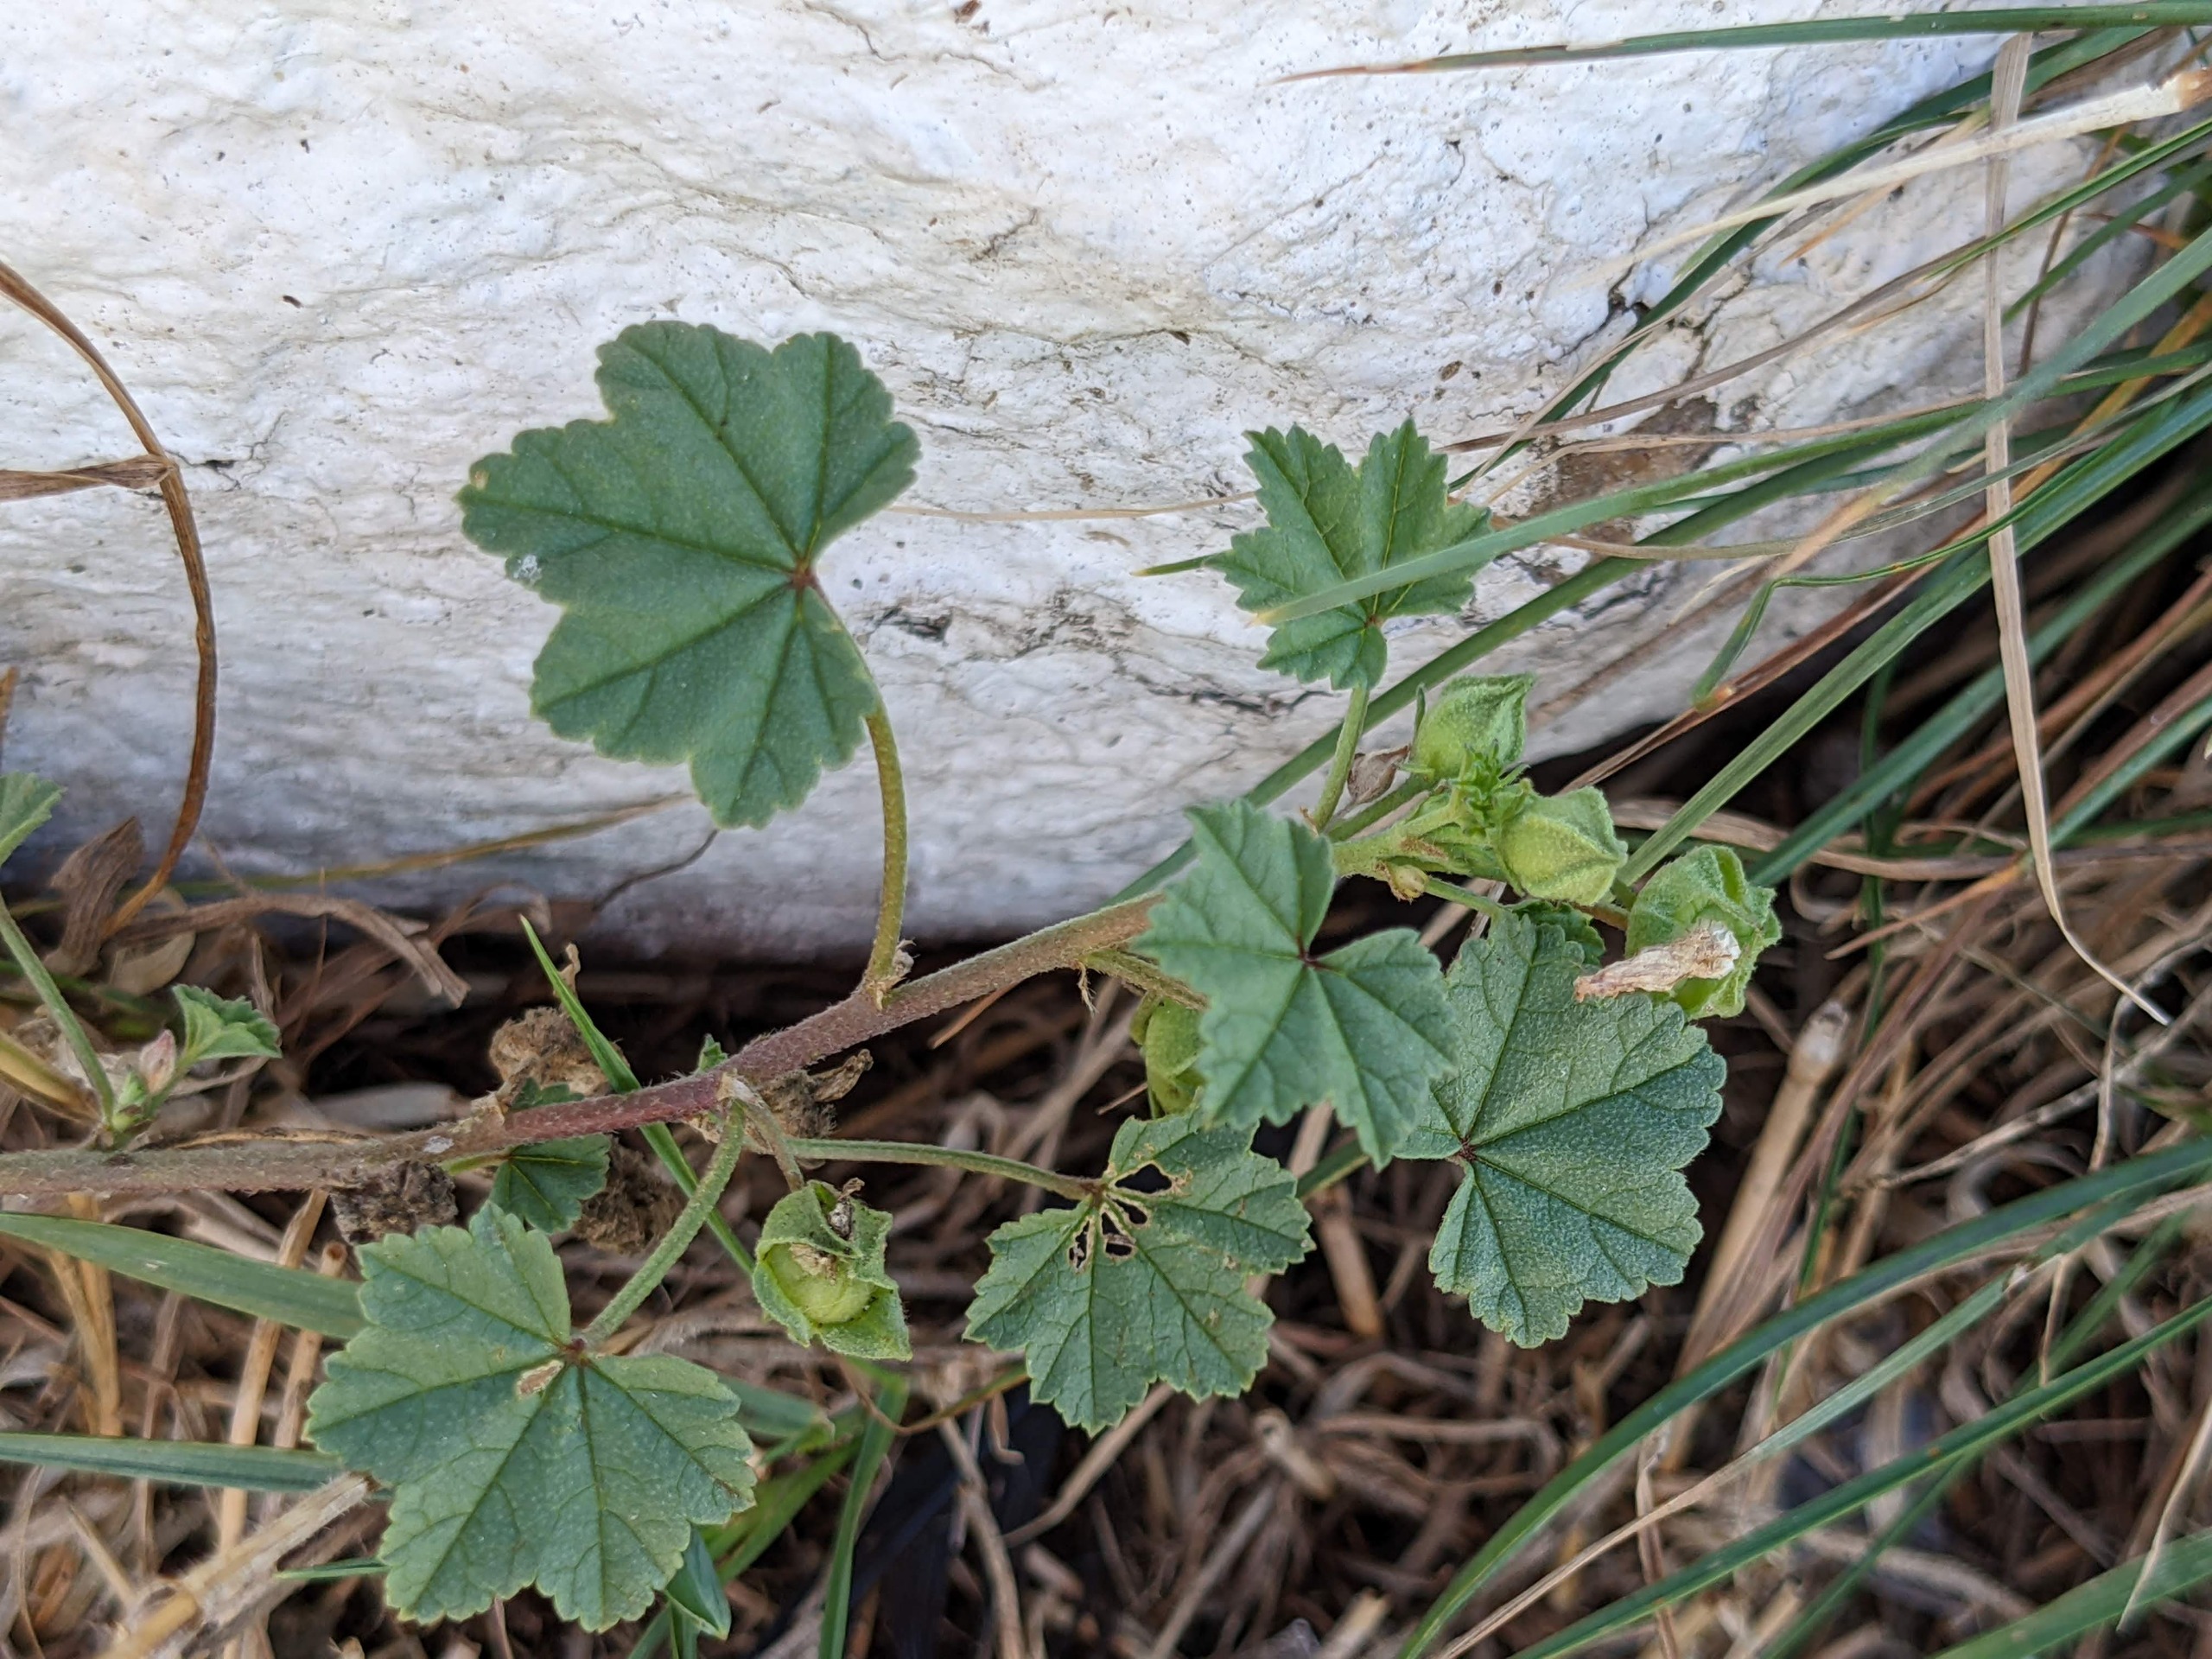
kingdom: Plantae
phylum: Tracheophyta
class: Magnoliopsida
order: Malvales
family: Malvaceae
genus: Malva
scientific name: Malva neglecta
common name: Rundbladet katost
